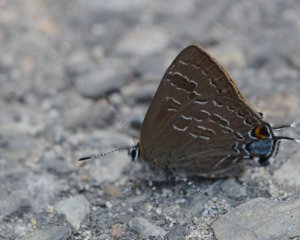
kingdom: Animalia
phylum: Arthropoda
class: Insecta
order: Lepidoptera
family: Lycaenidae
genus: Strymon
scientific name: Strymon caryaevorus
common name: Hickory Hairstreak
